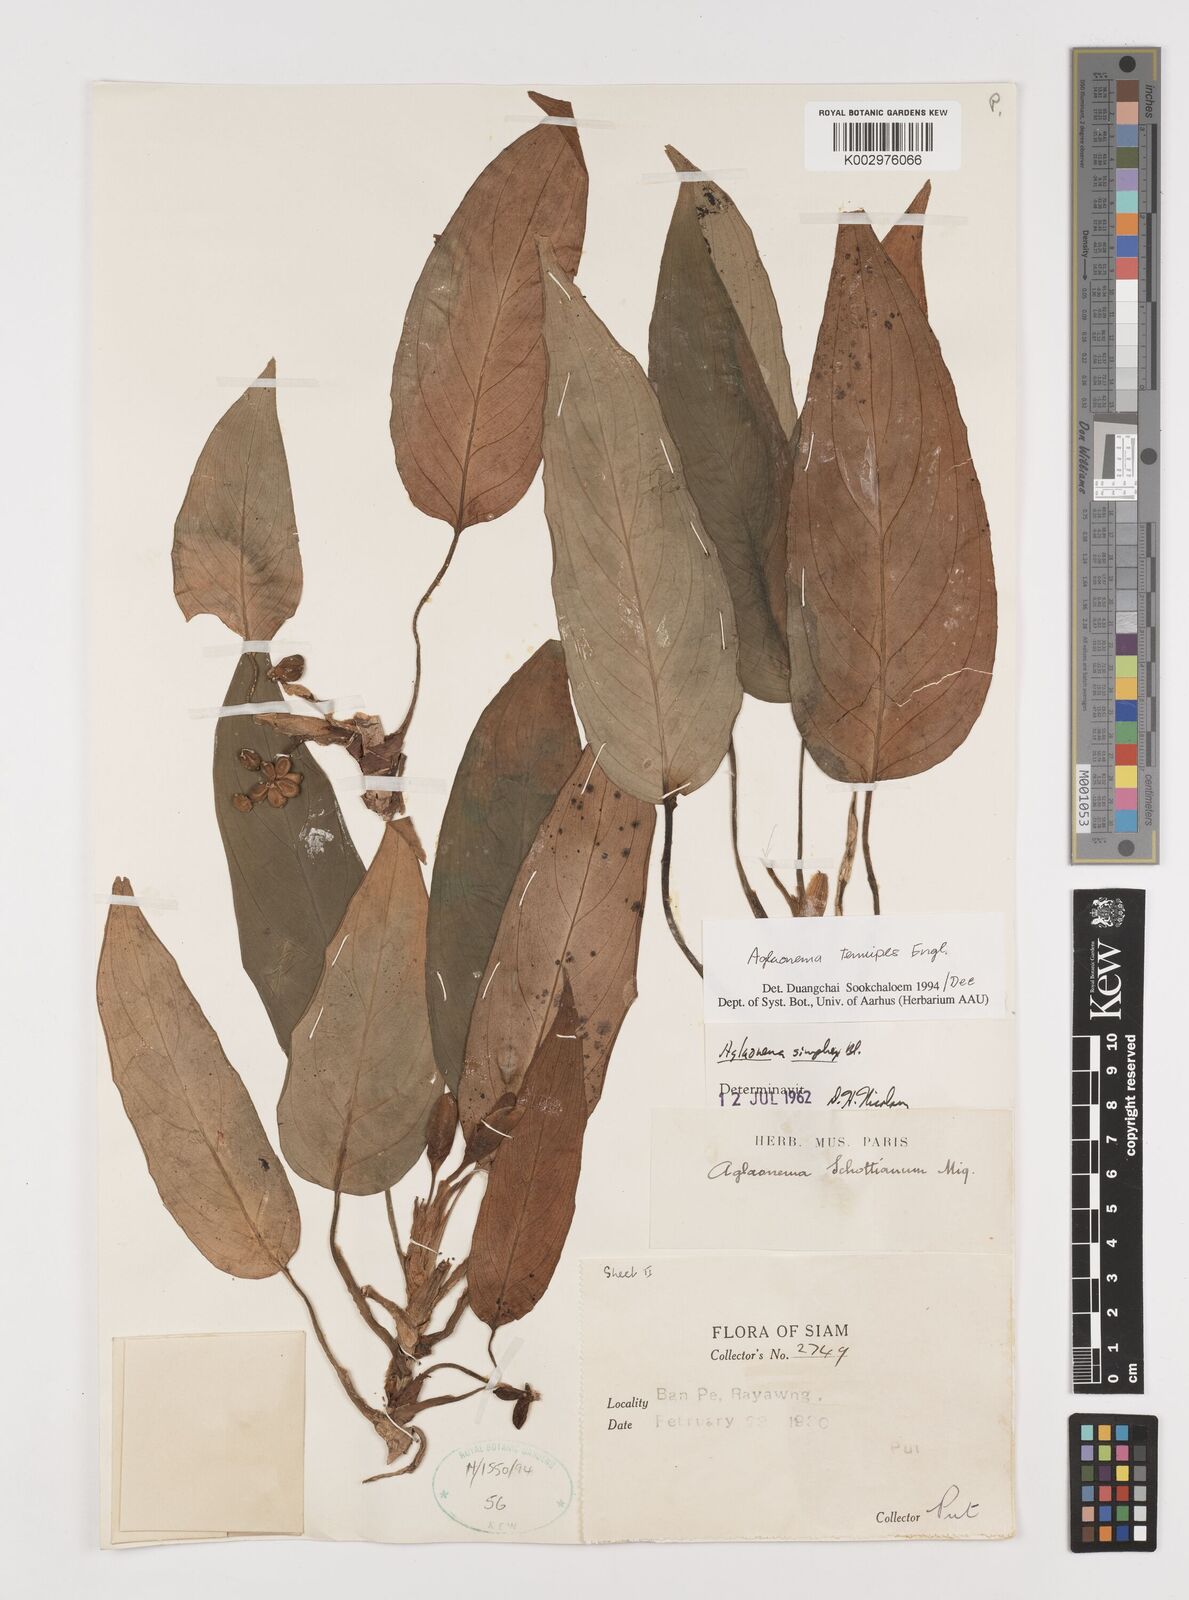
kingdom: Plantae
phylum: Tracheophyta
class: Liliopsida
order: Alismatales
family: Araceae
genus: Aglaonema
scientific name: Aglaonema simplex
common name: Malayan-sword
